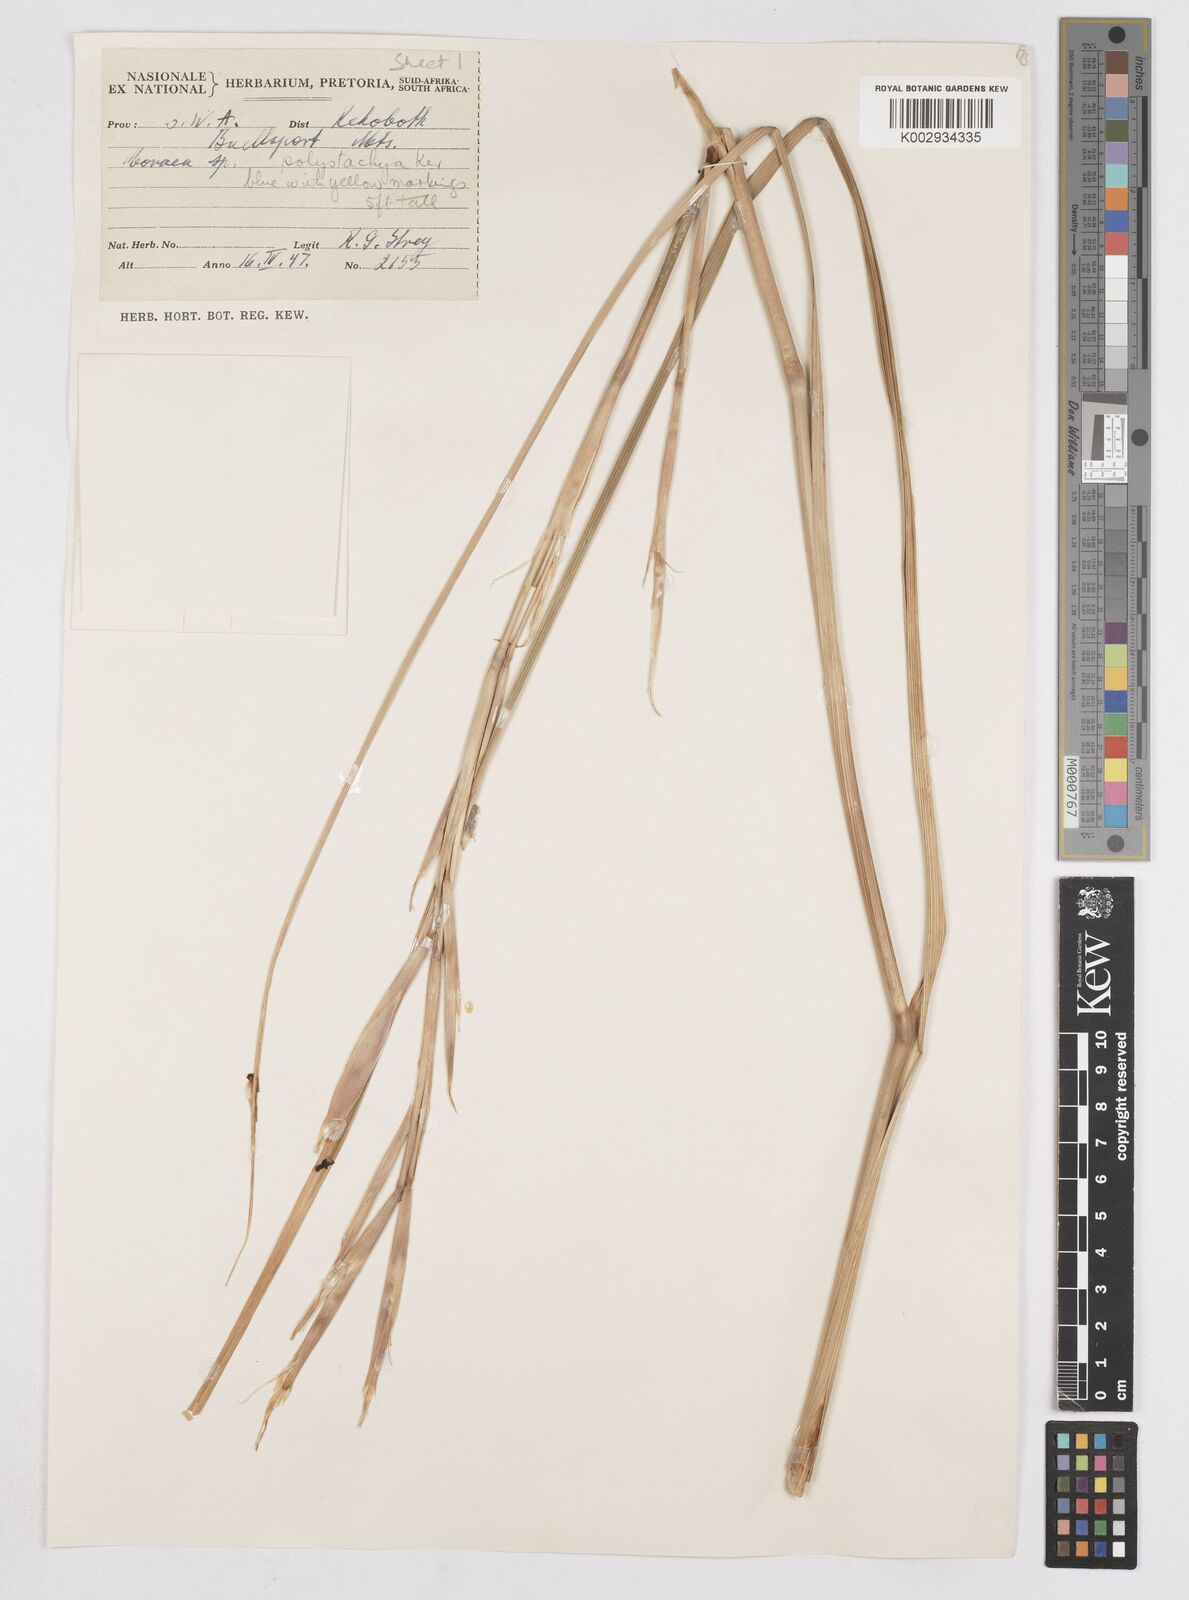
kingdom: Plantae
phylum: Tracheophyta
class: Liliopsida
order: Asparagales
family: Iridaceae
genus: Moraea
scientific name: Moraea polystachya
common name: Blue-tulip
